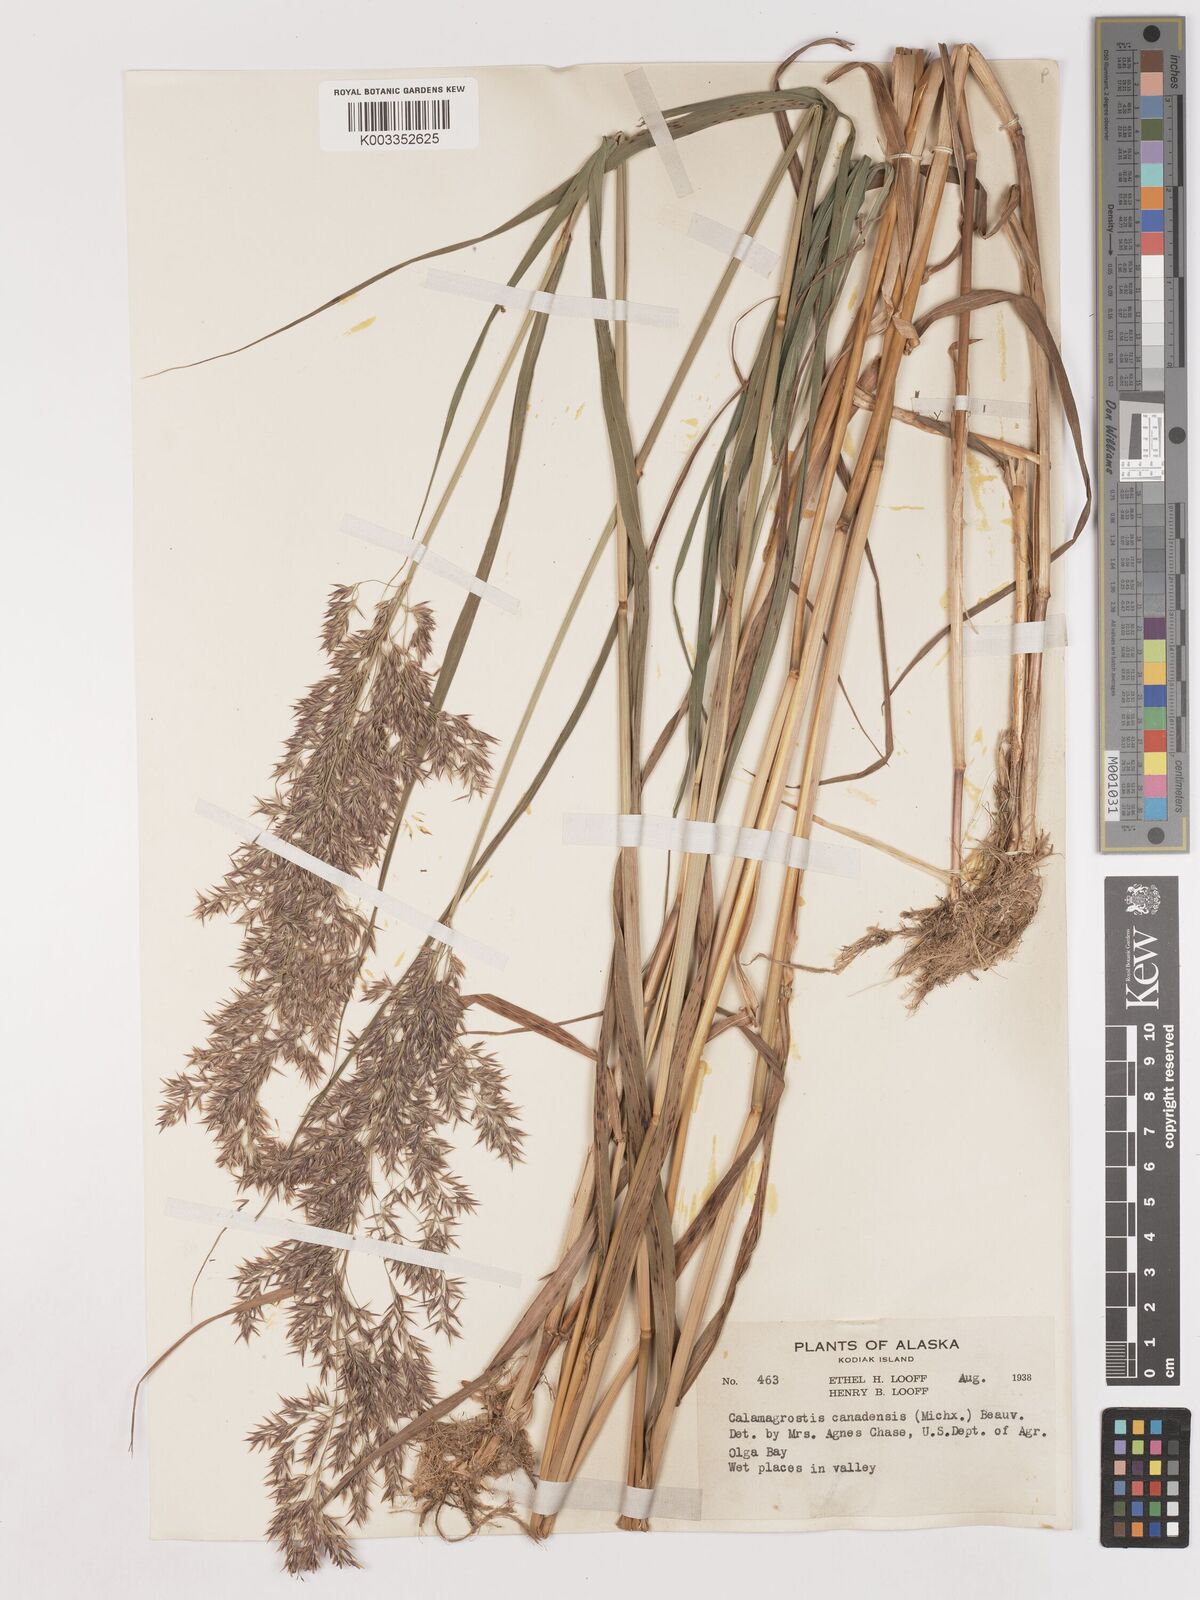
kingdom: Plantae
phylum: Tracheophyta
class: Liliopsida
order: Poales
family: Poaceae
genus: Calamagrostis
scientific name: Calamagrostis canadensis
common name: Canada bluejoint
